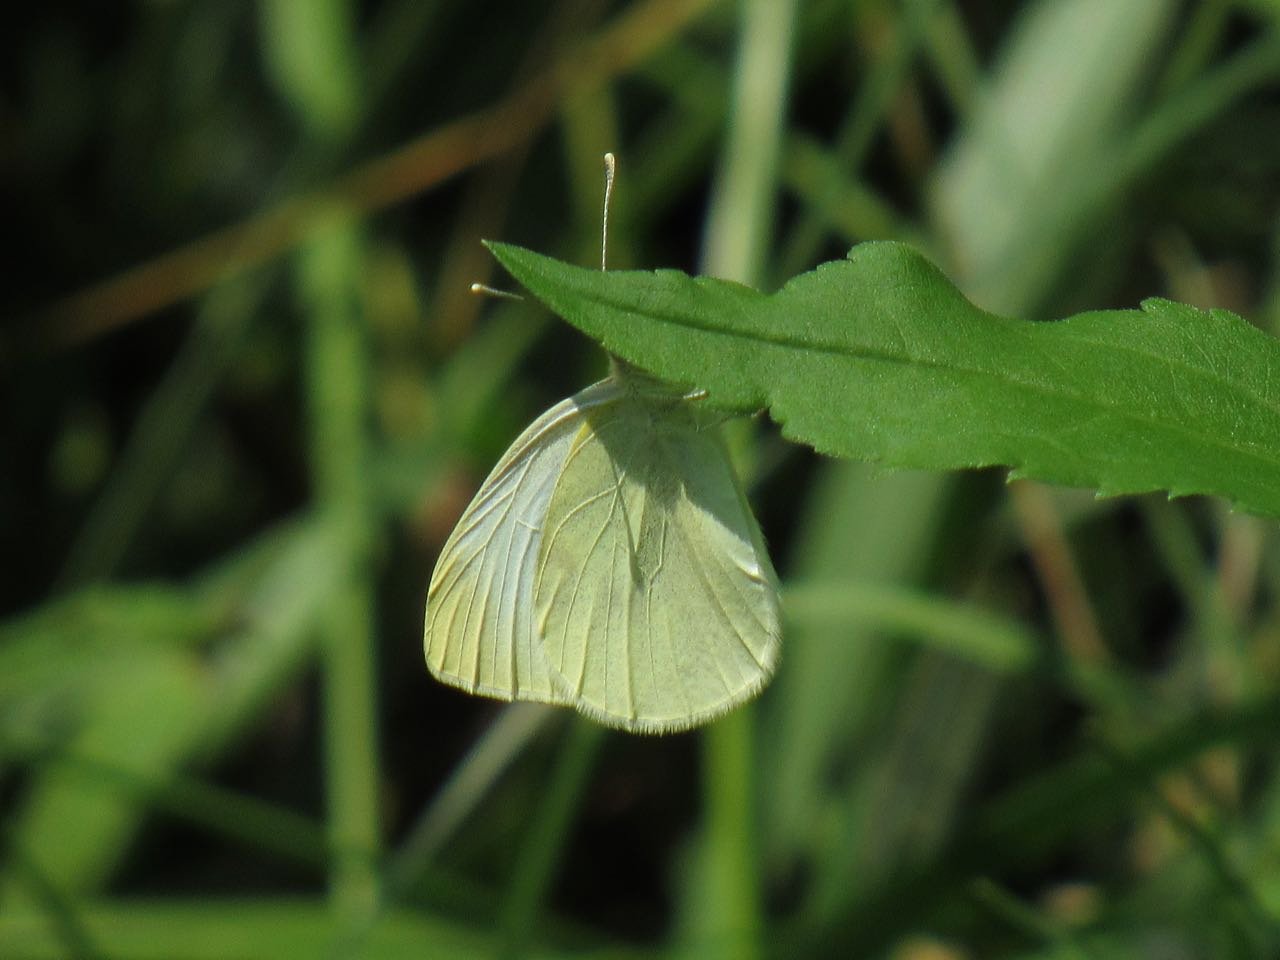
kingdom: Animalia
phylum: Arthropoda
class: Insecta
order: Lepidoptera
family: Pieridae
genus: Pieris
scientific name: Pieris rapae
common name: Cabbage White
